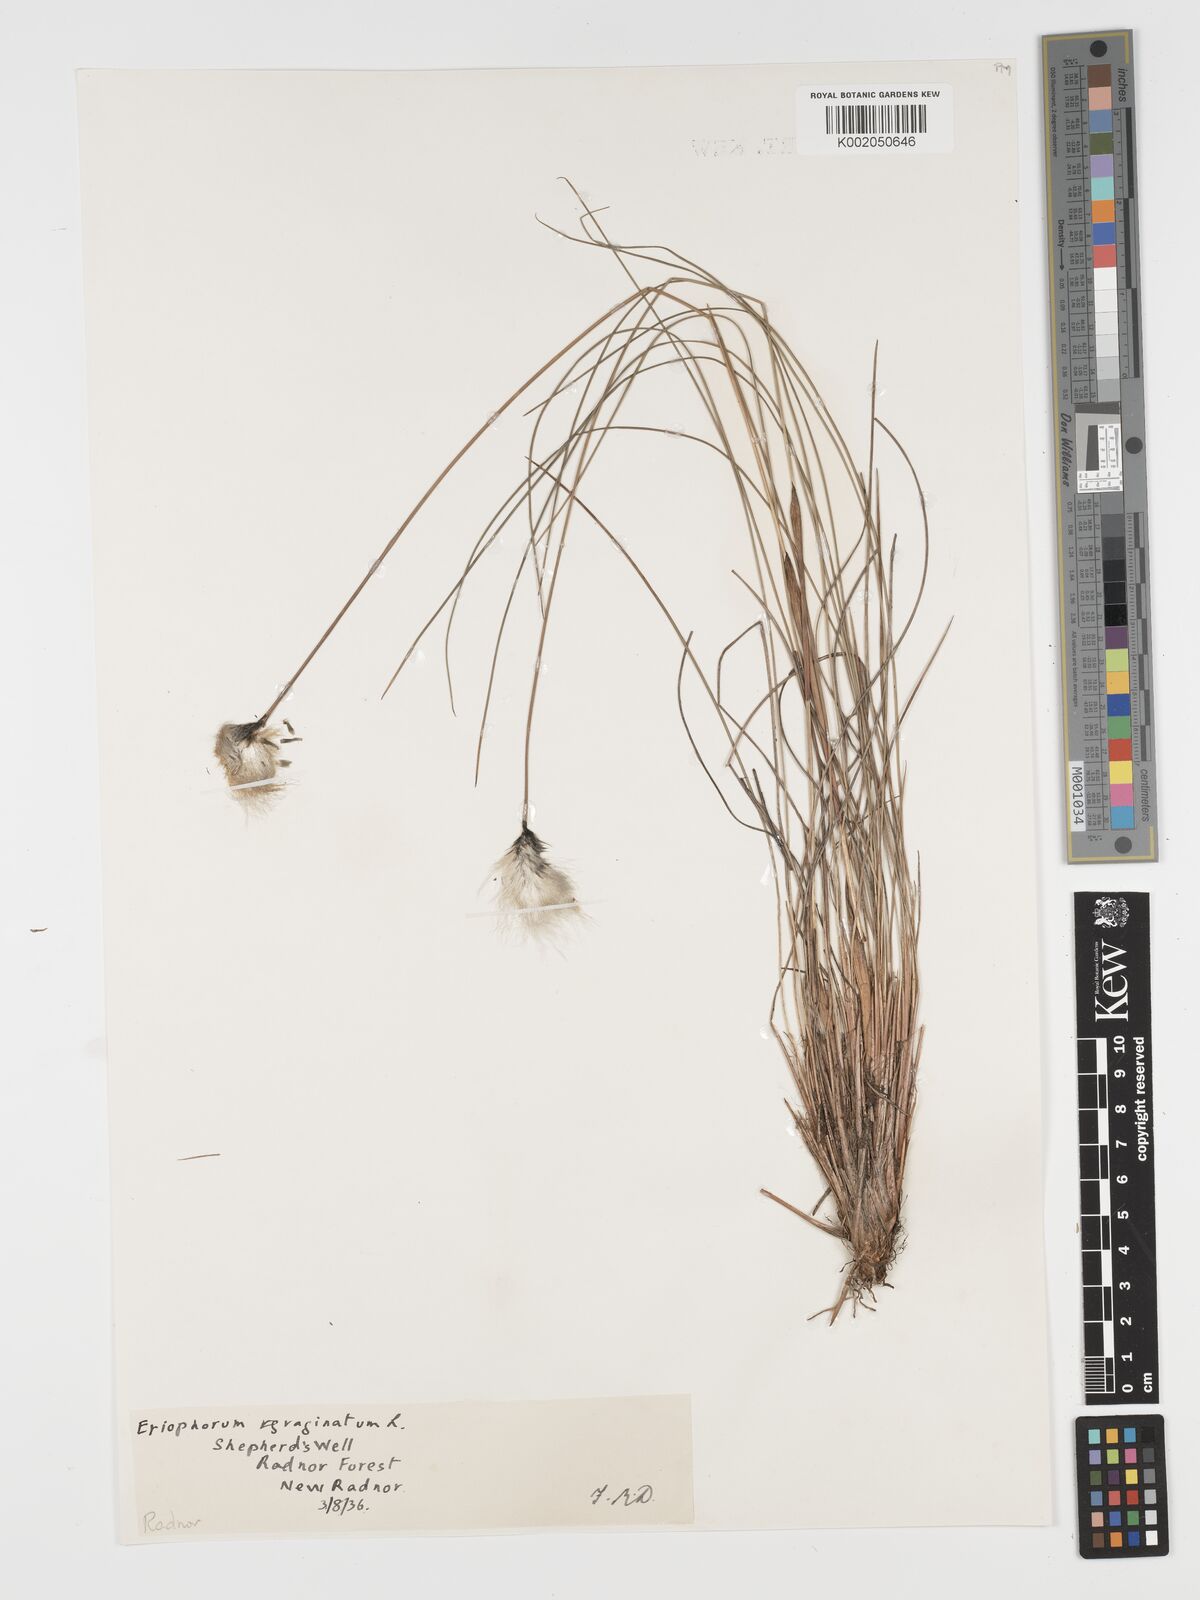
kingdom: Plantae
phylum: Tracheophyta
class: Liliopsida
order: Poales
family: Cyperaceae
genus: Eriophorum
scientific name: Eriophorum vaginatum
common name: Hare's-tail cottongrass
